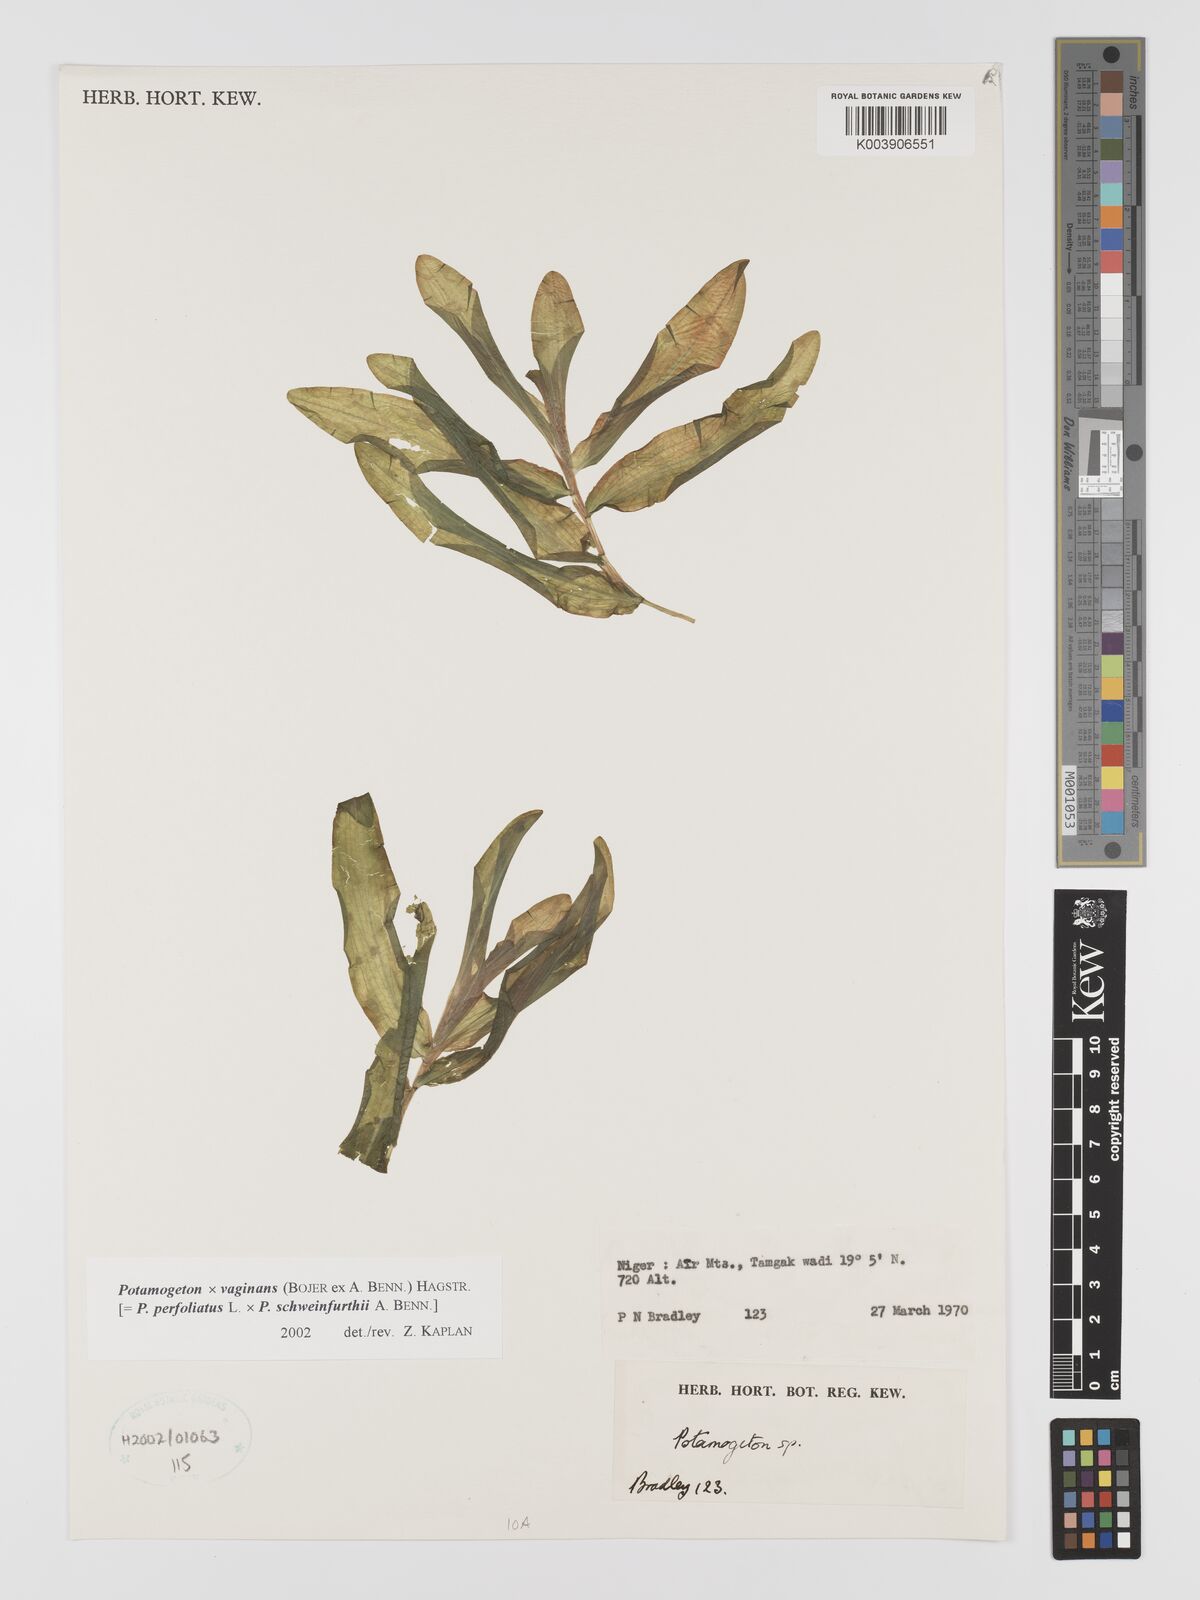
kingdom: Plantae
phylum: Tracheophyta
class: Liliopsida
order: Alismatales
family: Potamogetonaceae
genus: Potamogeton
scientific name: Potamogeton
